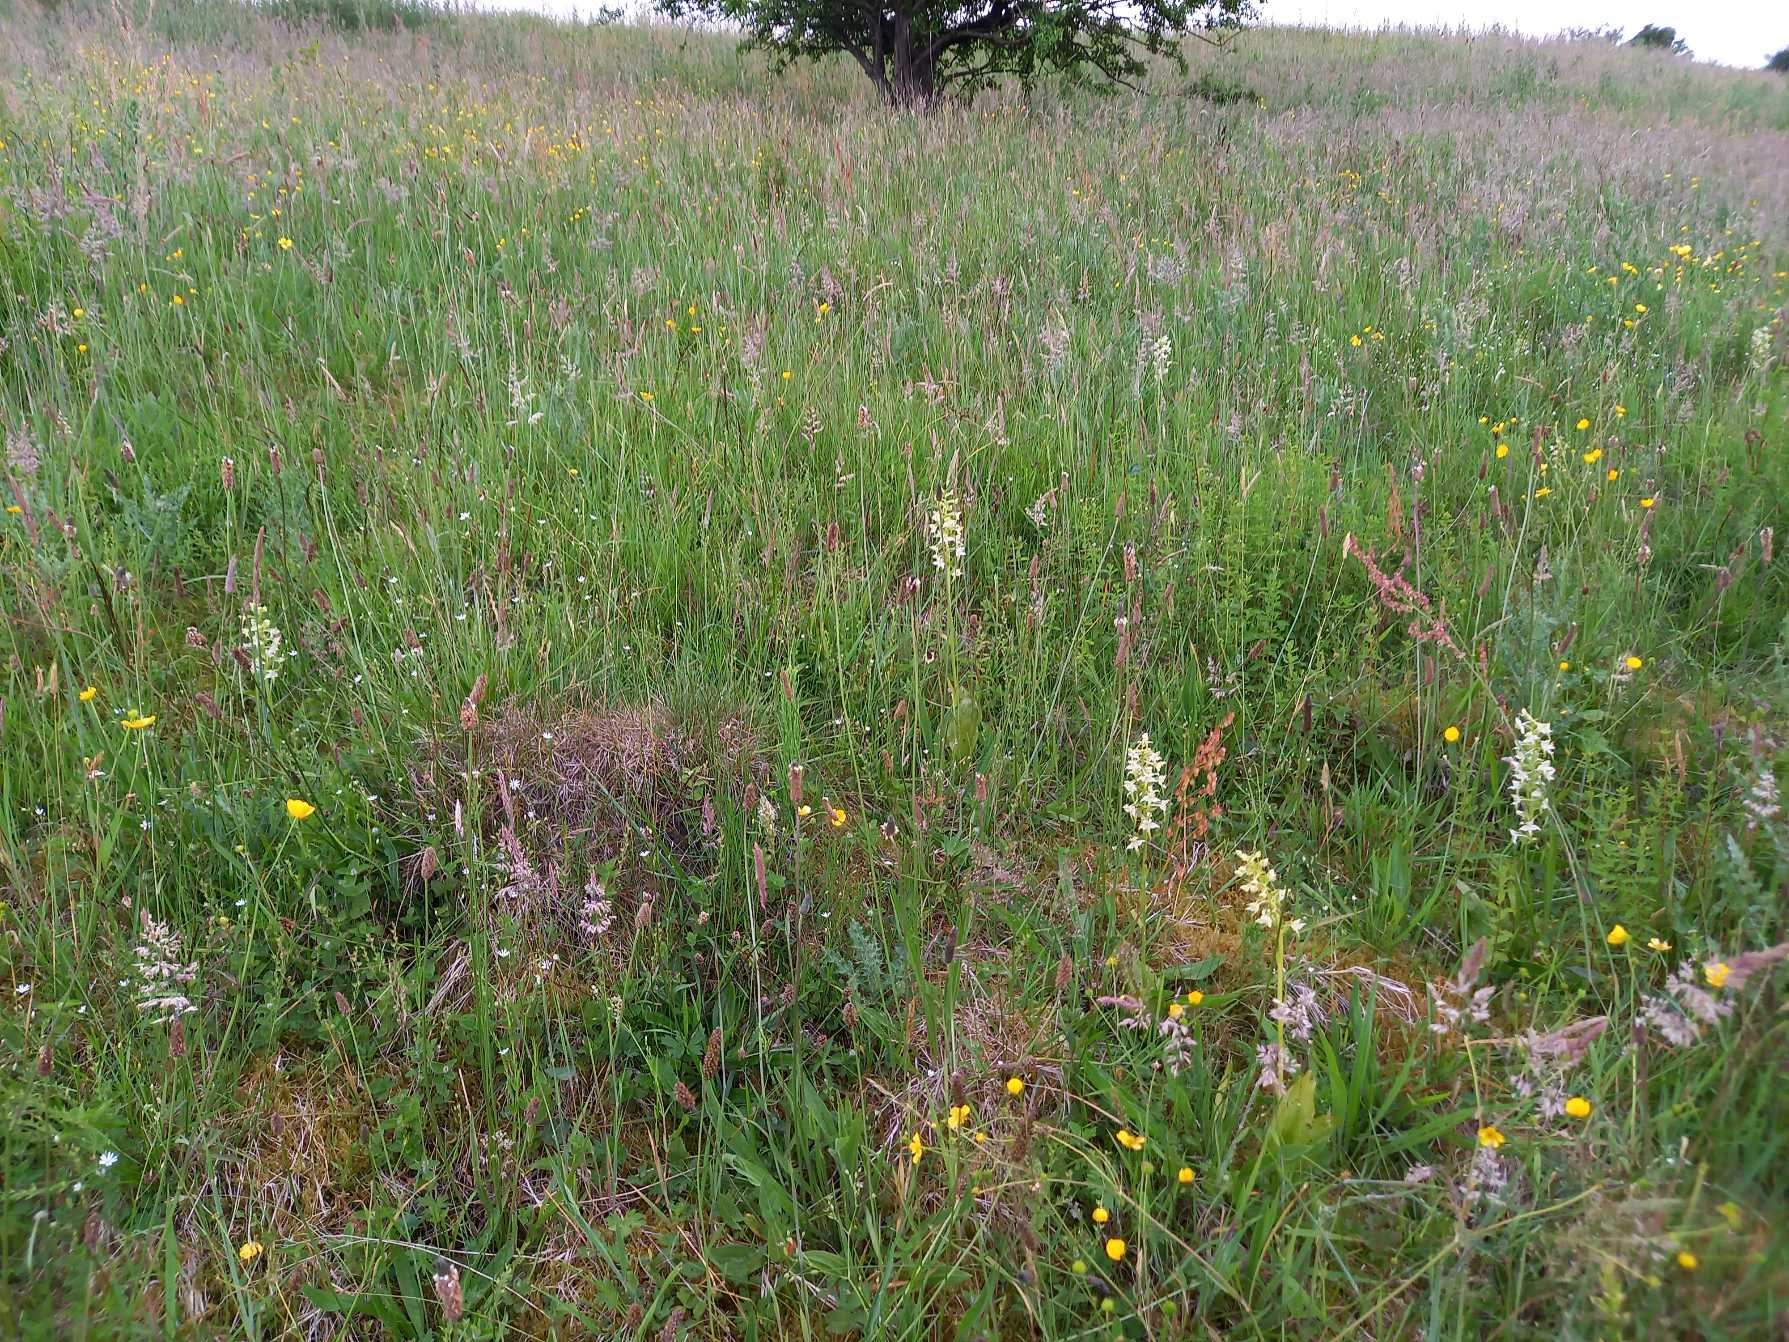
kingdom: Plantae
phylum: Tracheophyta
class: Liliopsida
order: Asparagales
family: Orchidaceae
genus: Platanthera
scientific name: Platanthera chlorantha
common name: Skov-gøgelilje
